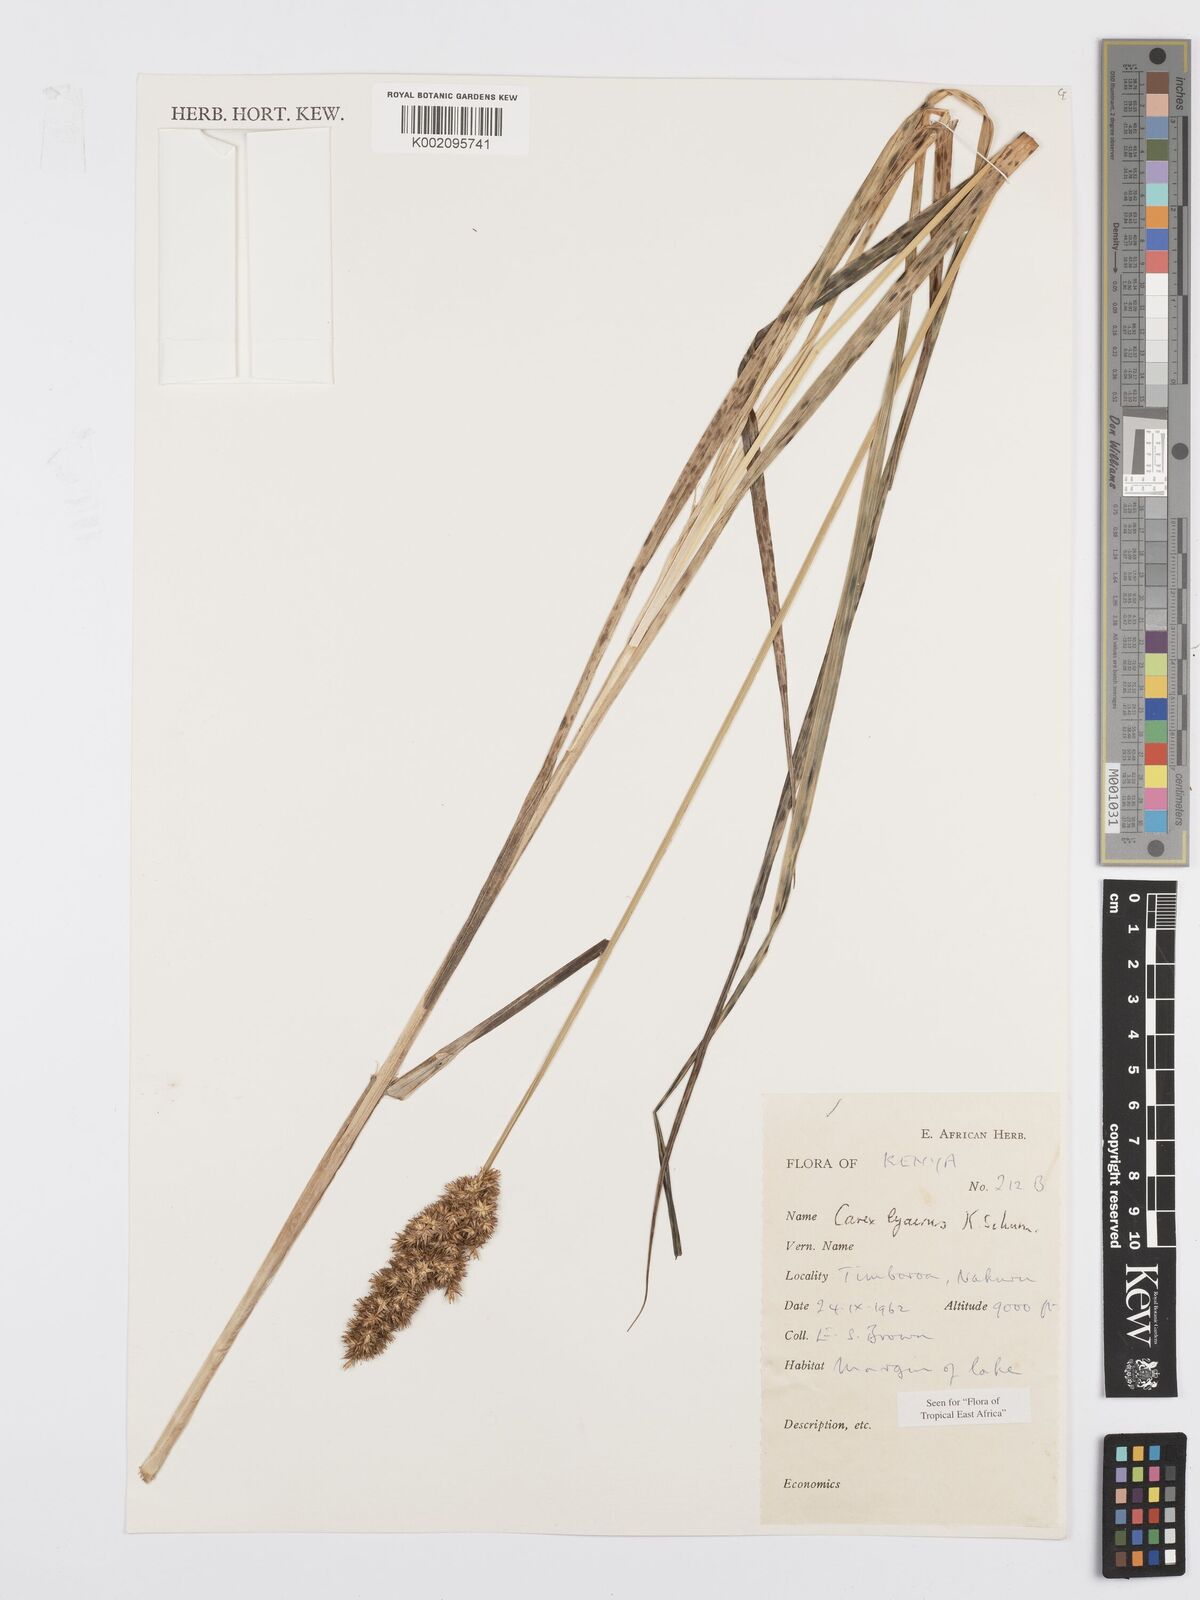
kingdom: Plantae
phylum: Tracheophyta
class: Liliopsida
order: Poales
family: Cyperaceae
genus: Carex
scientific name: Carex lycurus
